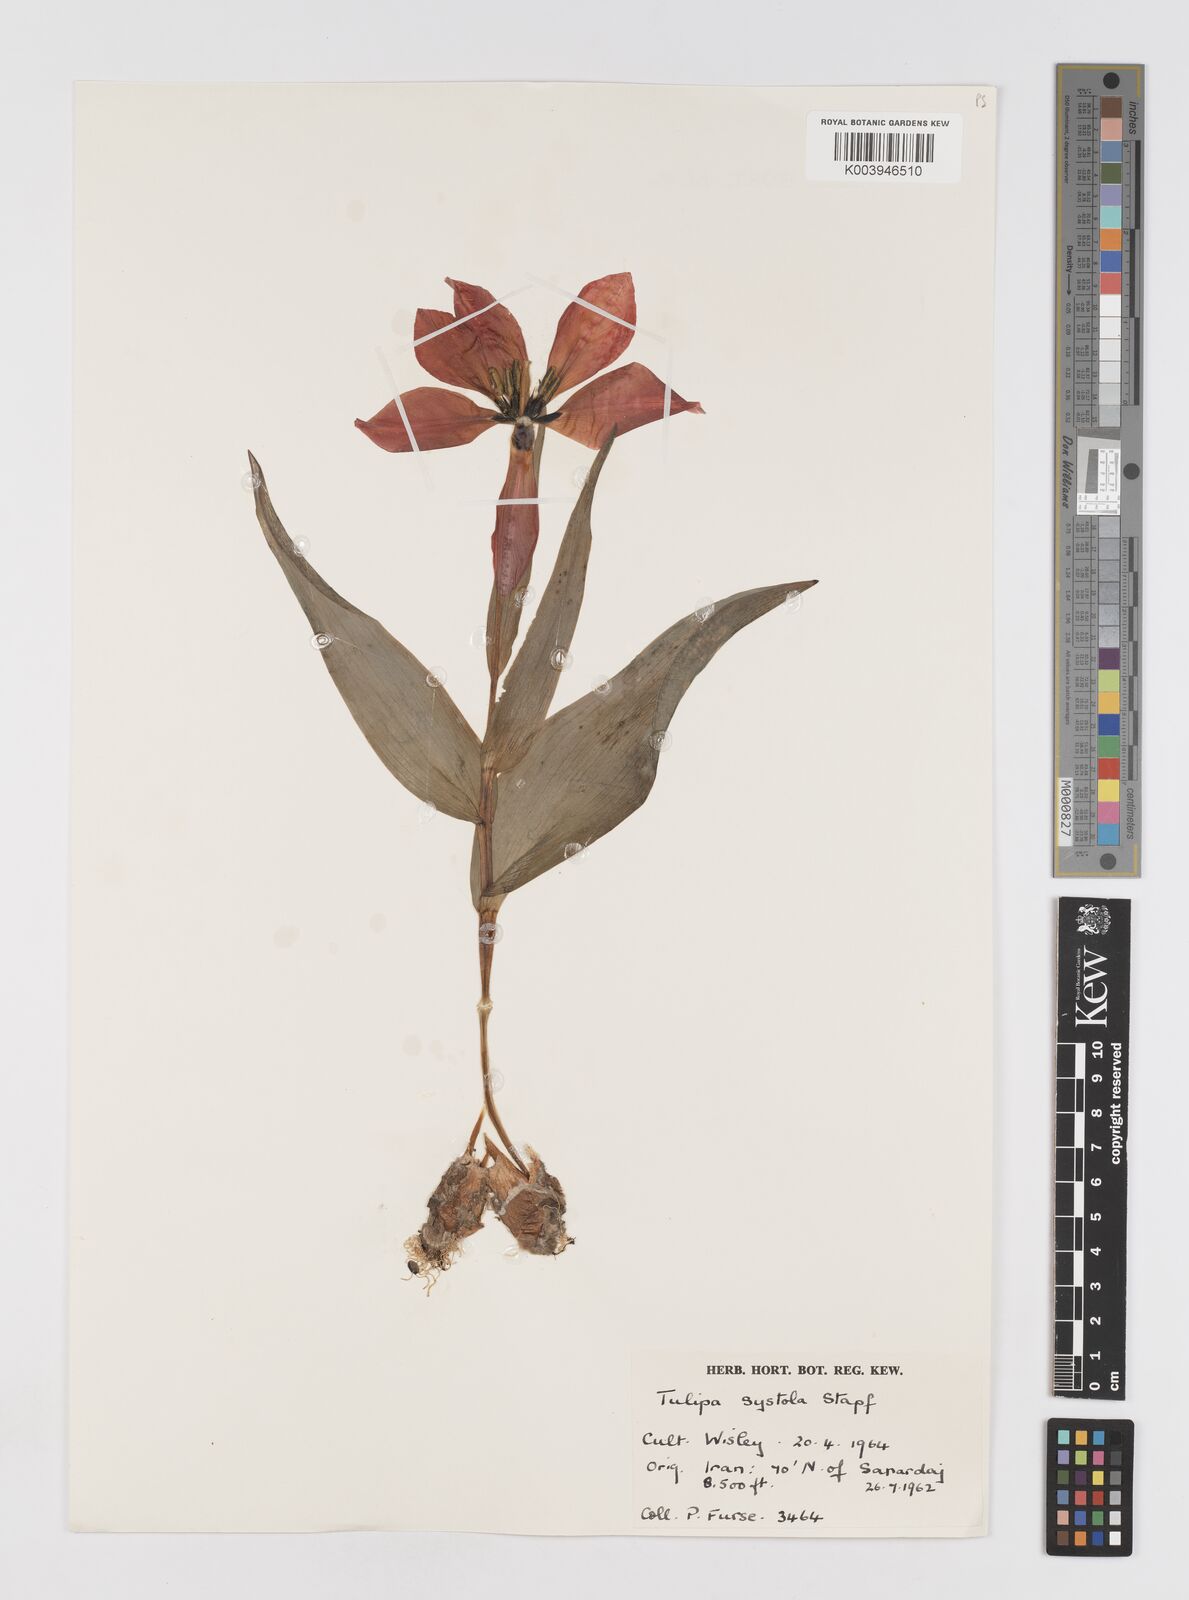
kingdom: Plantae
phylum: Tracheophyta
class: Liliopsida
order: Liliales
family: Liliaceae
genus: Tulipa
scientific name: Tulipa
